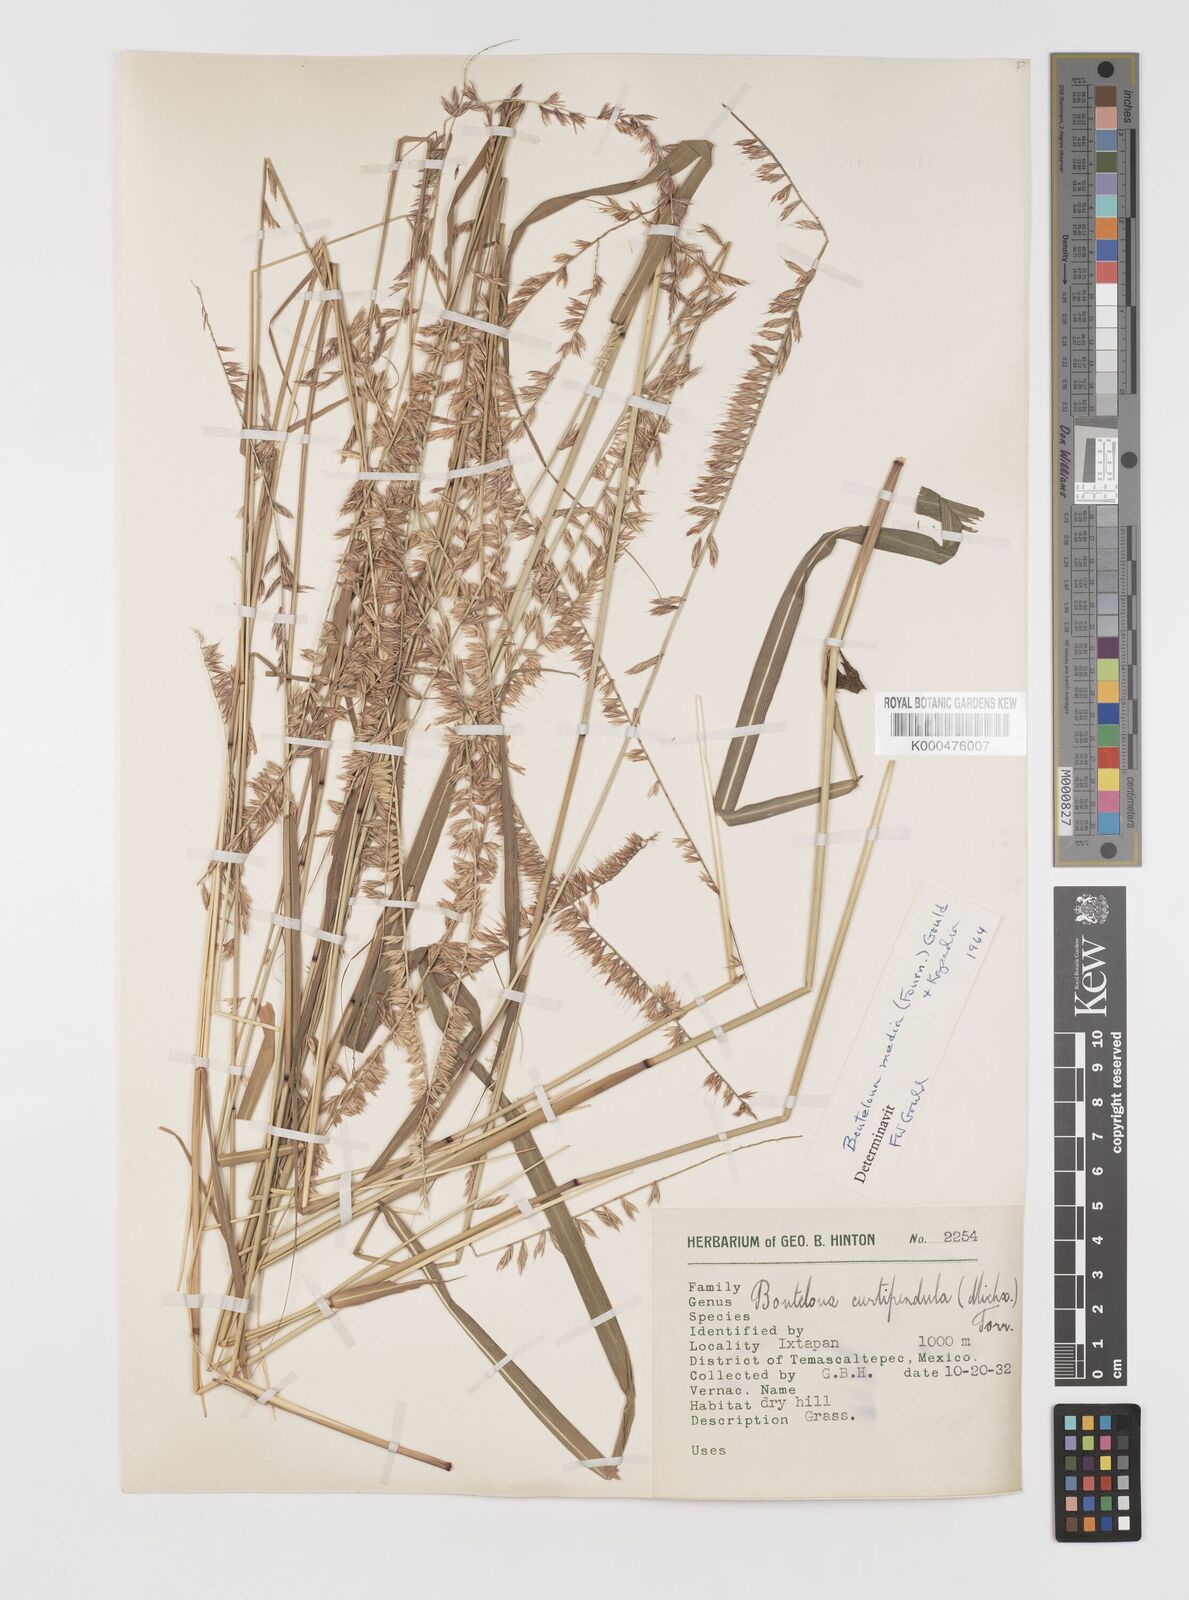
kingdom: Plantae
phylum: Tracheophyta
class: Liliopsida
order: Poales
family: Poaceae
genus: Bouteloua
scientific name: Bouteloua media
